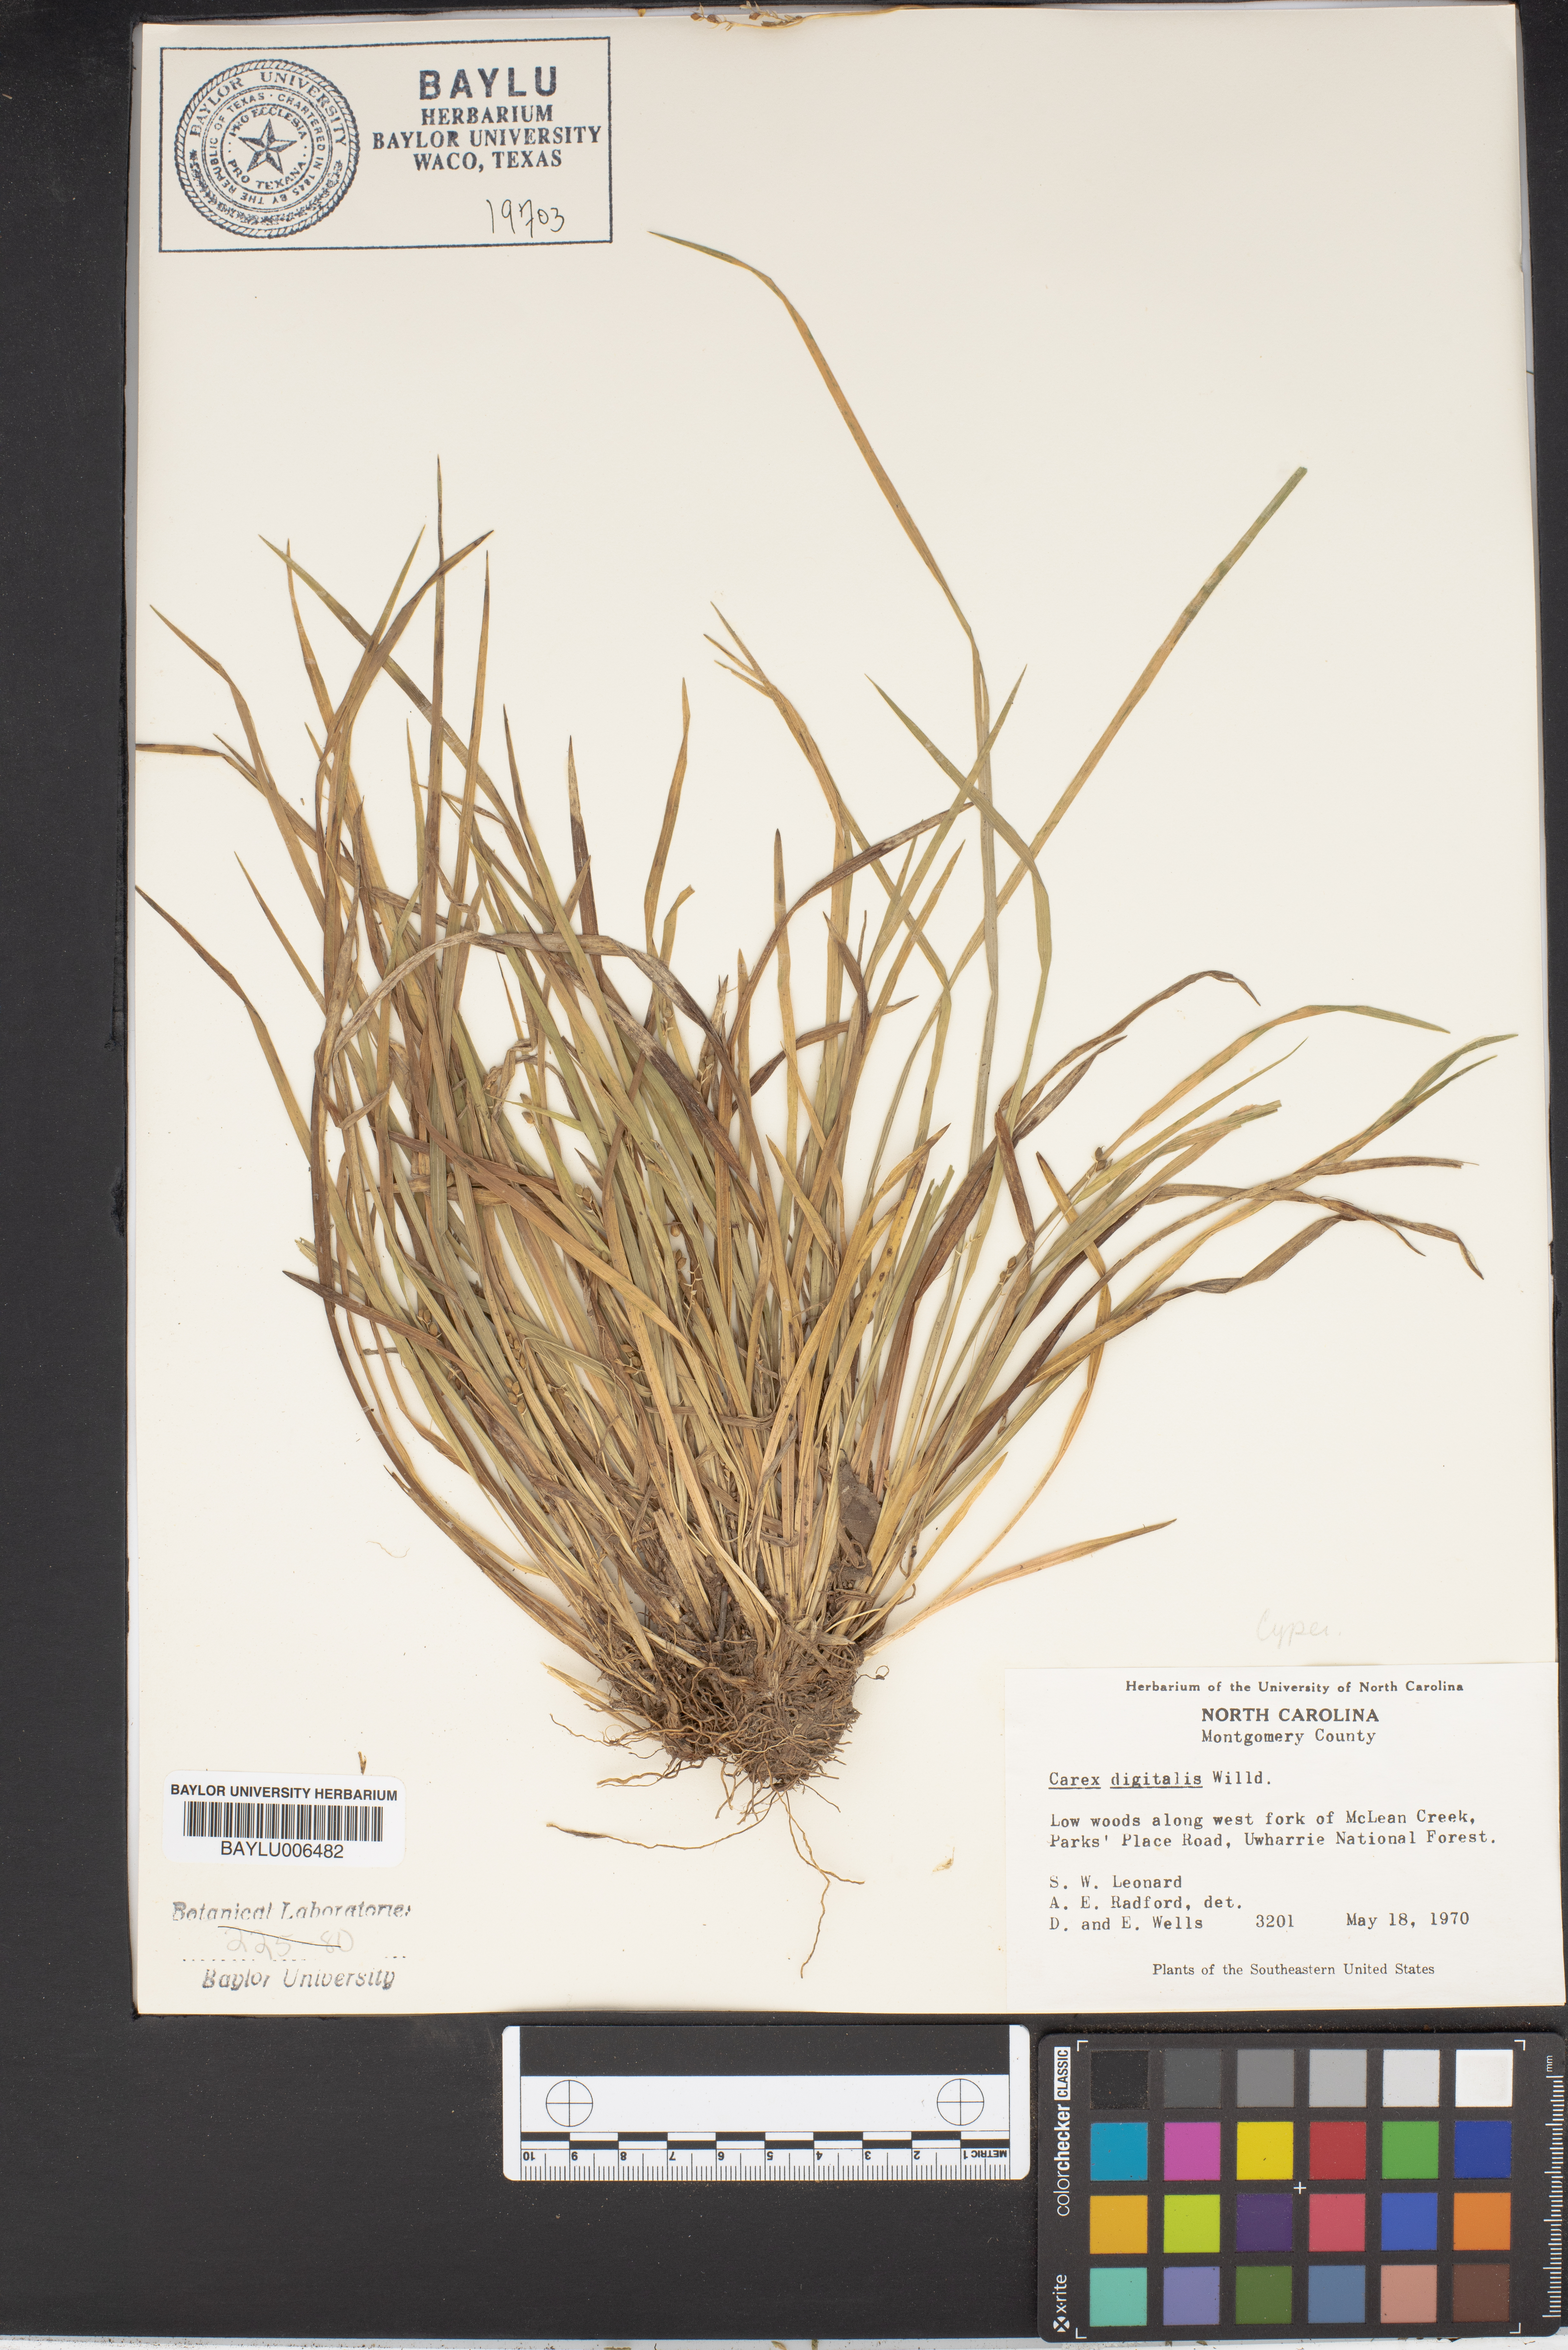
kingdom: Plantae
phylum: Tracheophyta
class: Liliopsida
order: Poales
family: Cyperaceae
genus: Carex
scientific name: Carex digitalis
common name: Slender wood sedge
